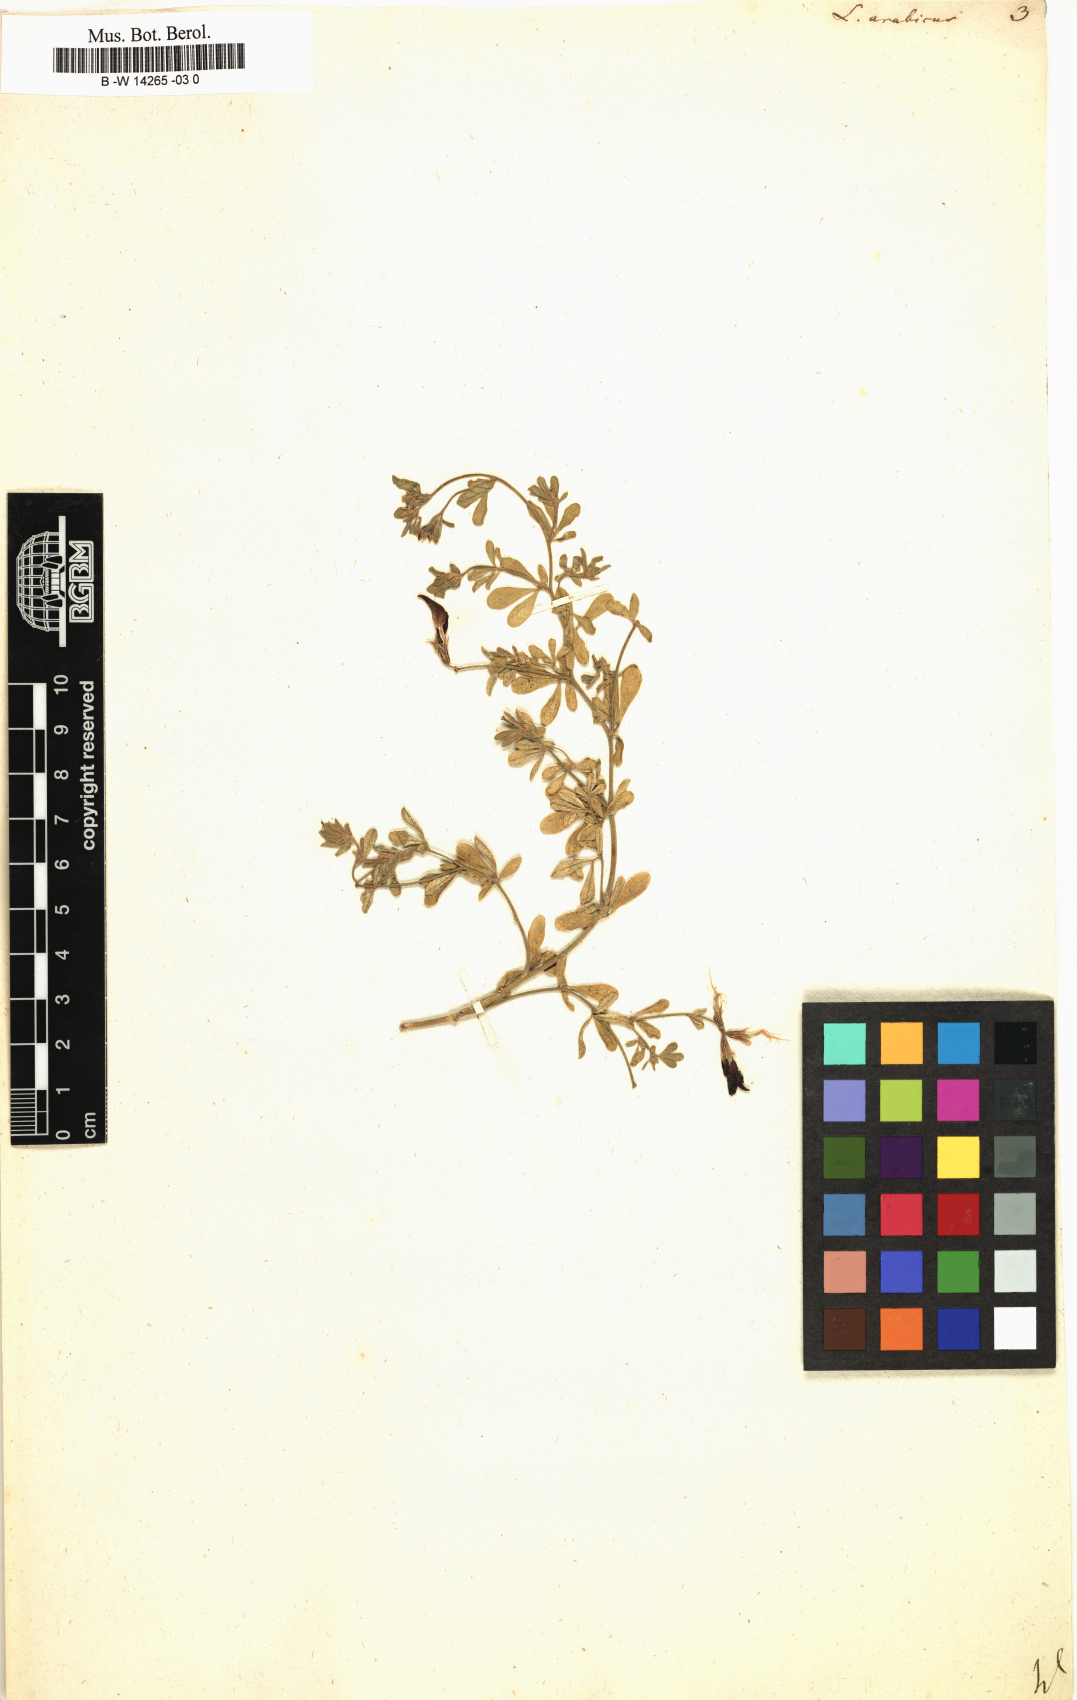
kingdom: Plantae
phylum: Tracheophyta
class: Magnoliopsida
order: Fabales
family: Fabaceae
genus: Lotus
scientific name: Lotus arabicus
